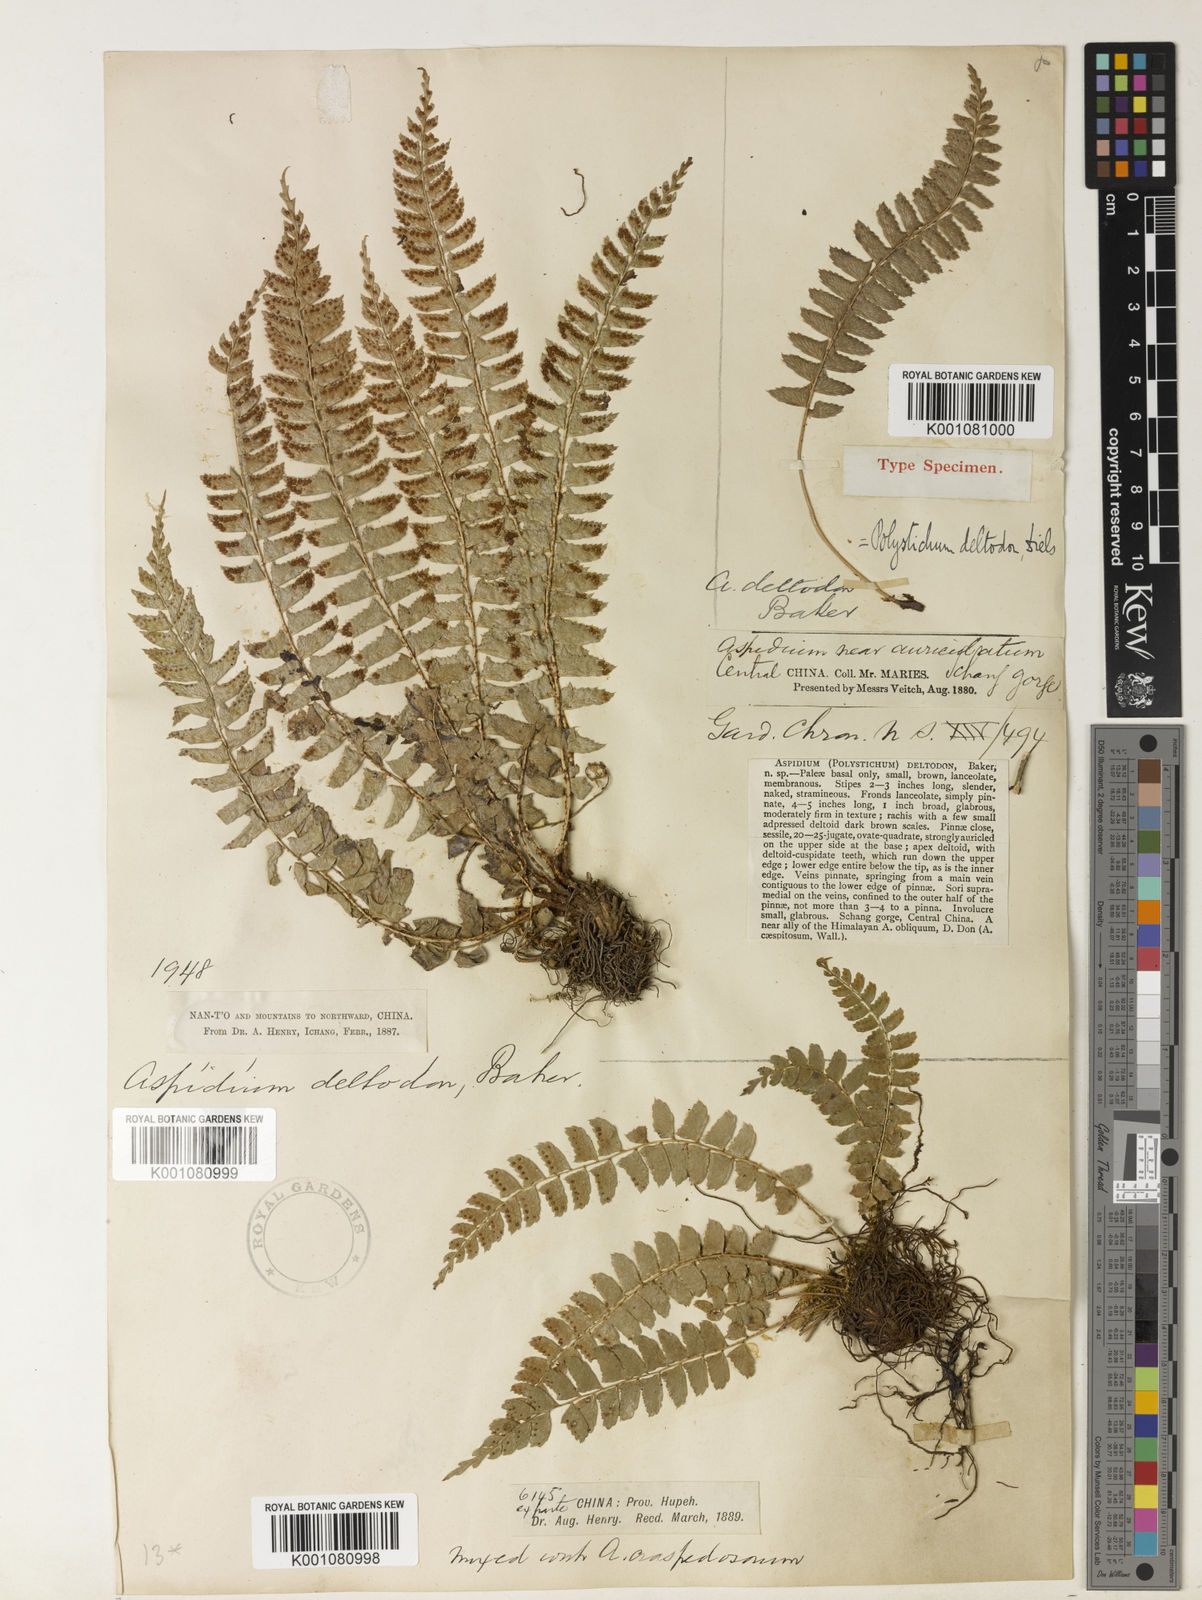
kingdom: Plantae
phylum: Tracheophyta
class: Polypodiopsida
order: Polypodiales
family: Dryopteridaceae
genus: Polystichum
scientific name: Polystichum deltodon
